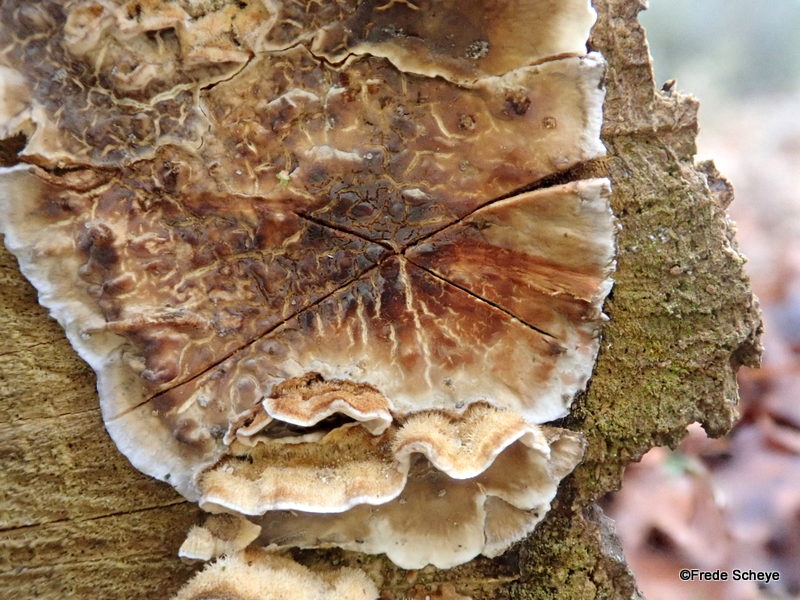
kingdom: Fungi
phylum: Basidiomycota
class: Agaricomycetes
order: Russulales
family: Stereaceae
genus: Stereum
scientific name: Stereum hirsutum
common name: håret lædersvamp
